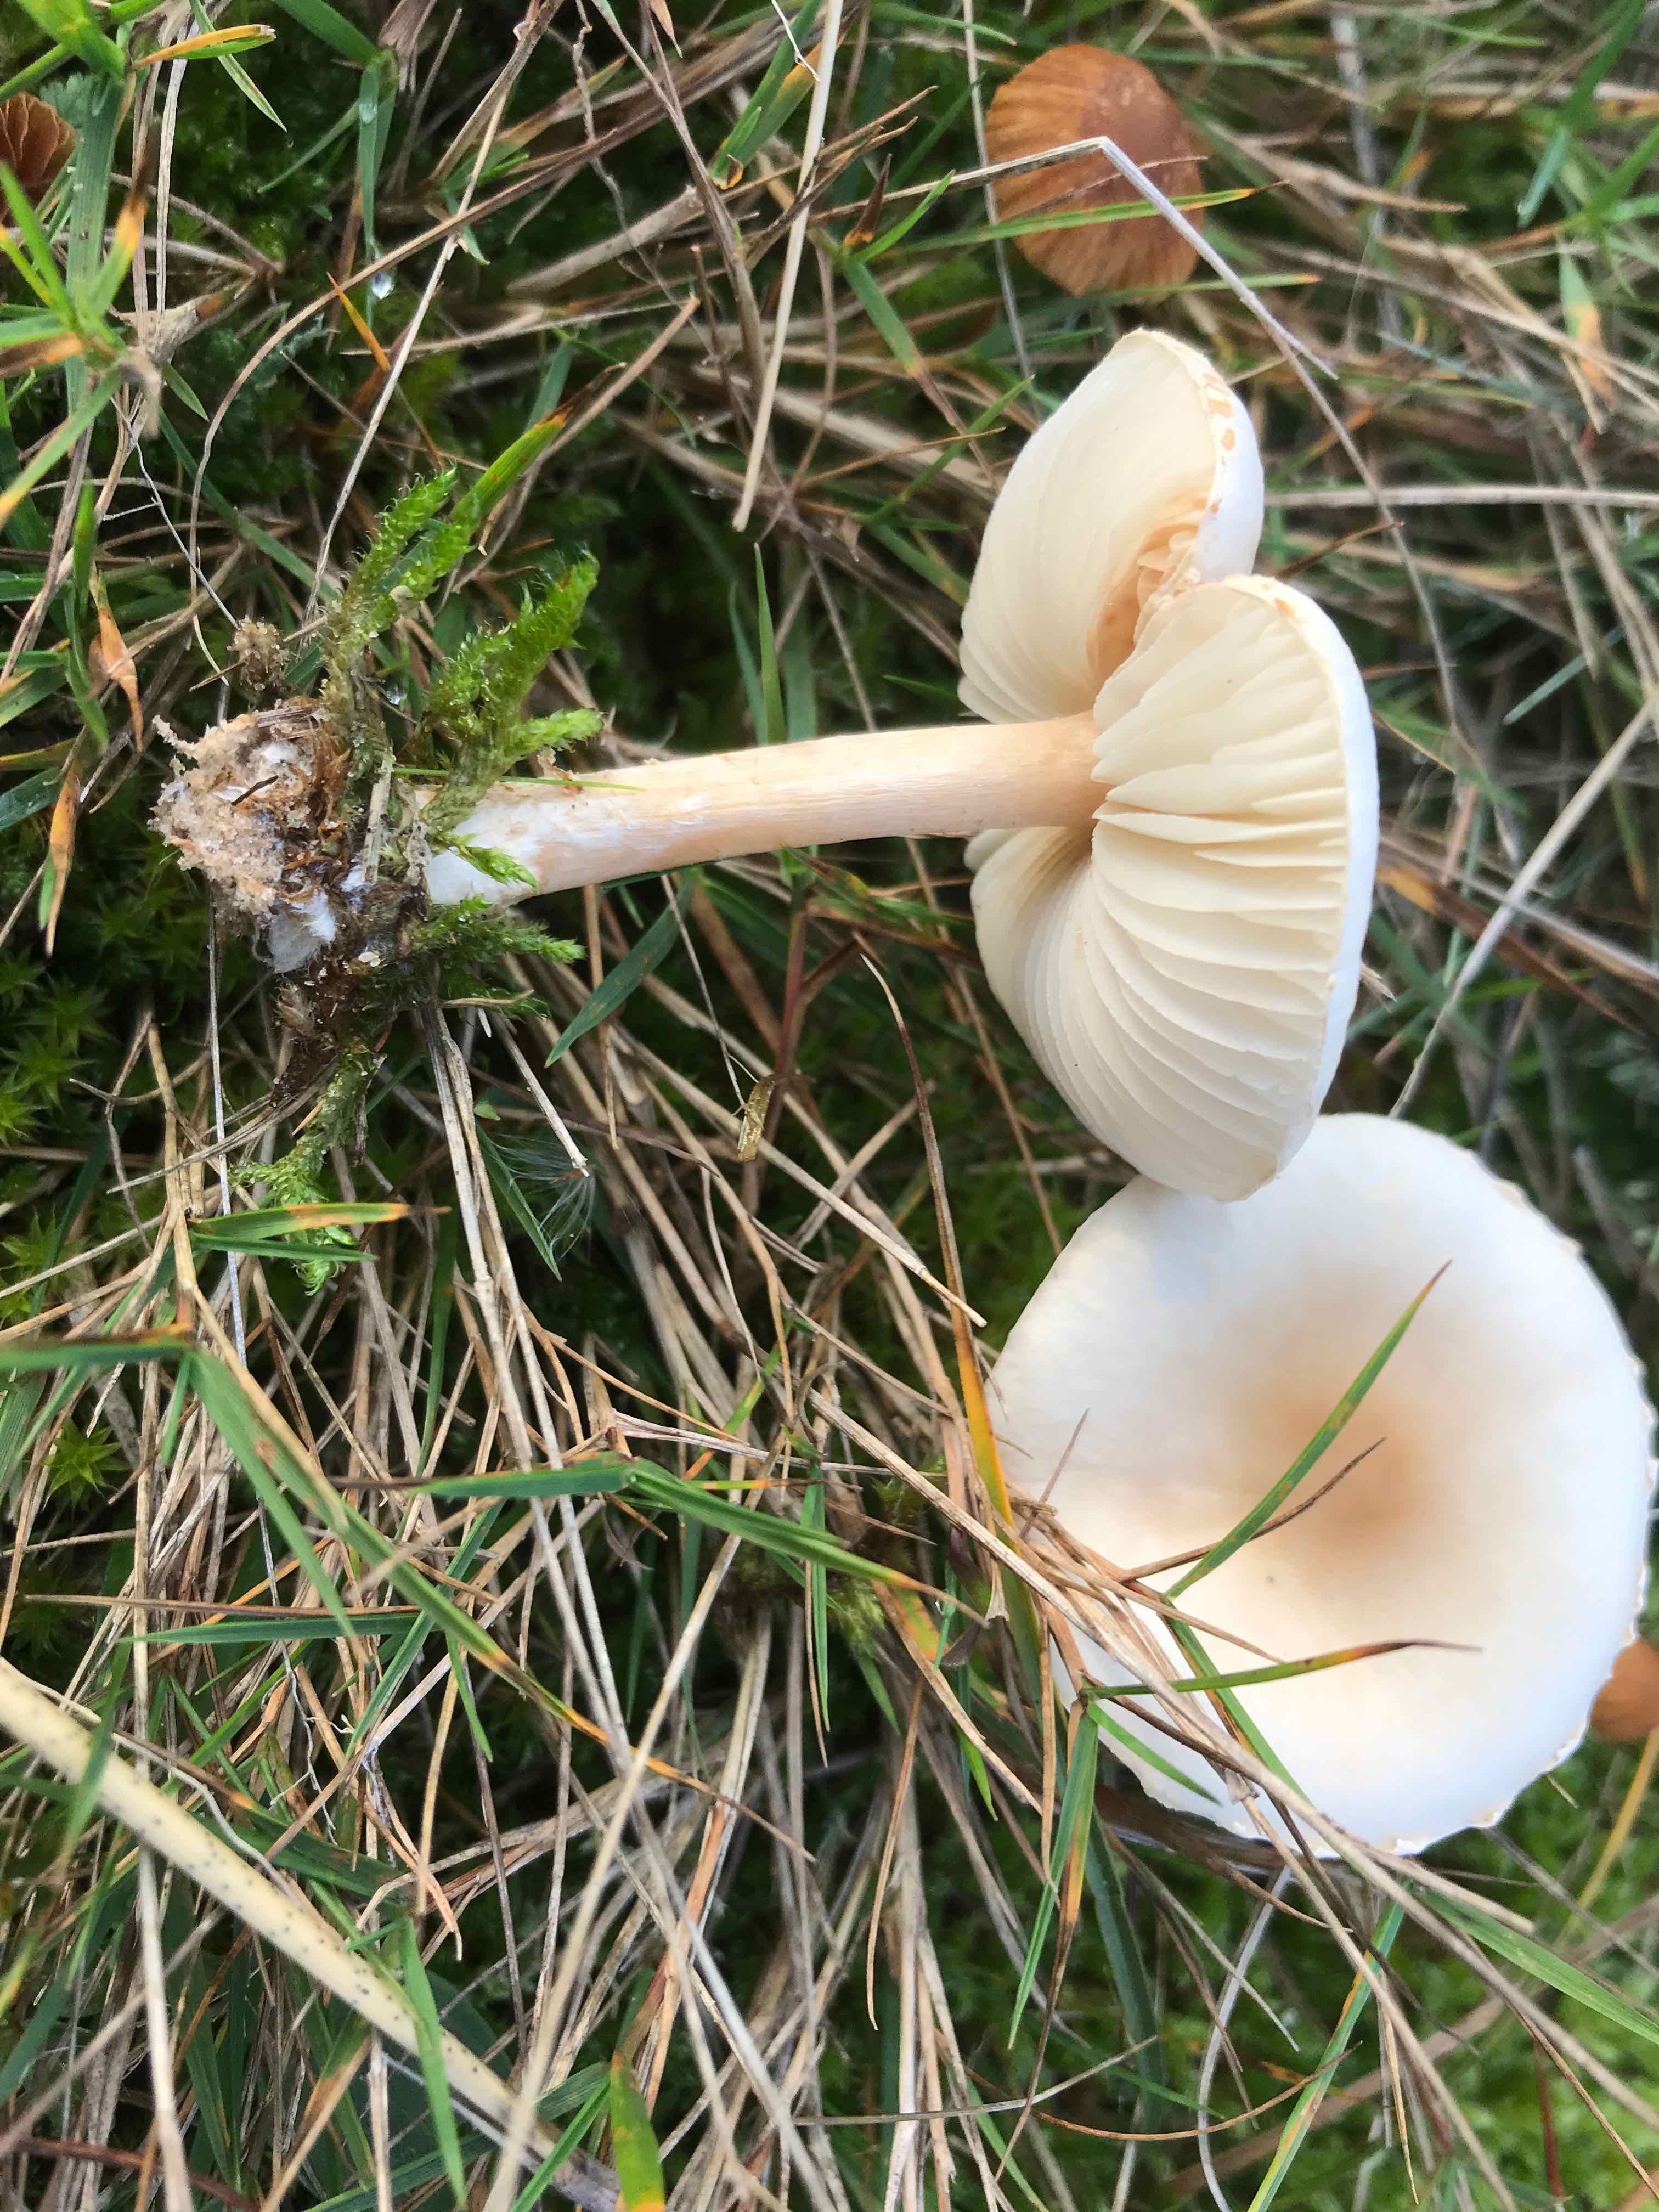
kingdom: Fungi
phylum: Basidiomycota
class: Agaricomycetes
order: Agaricales
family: Agaricaceae
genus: Lepiota
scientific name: Lepiota erminea
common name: hvid parasolhat
